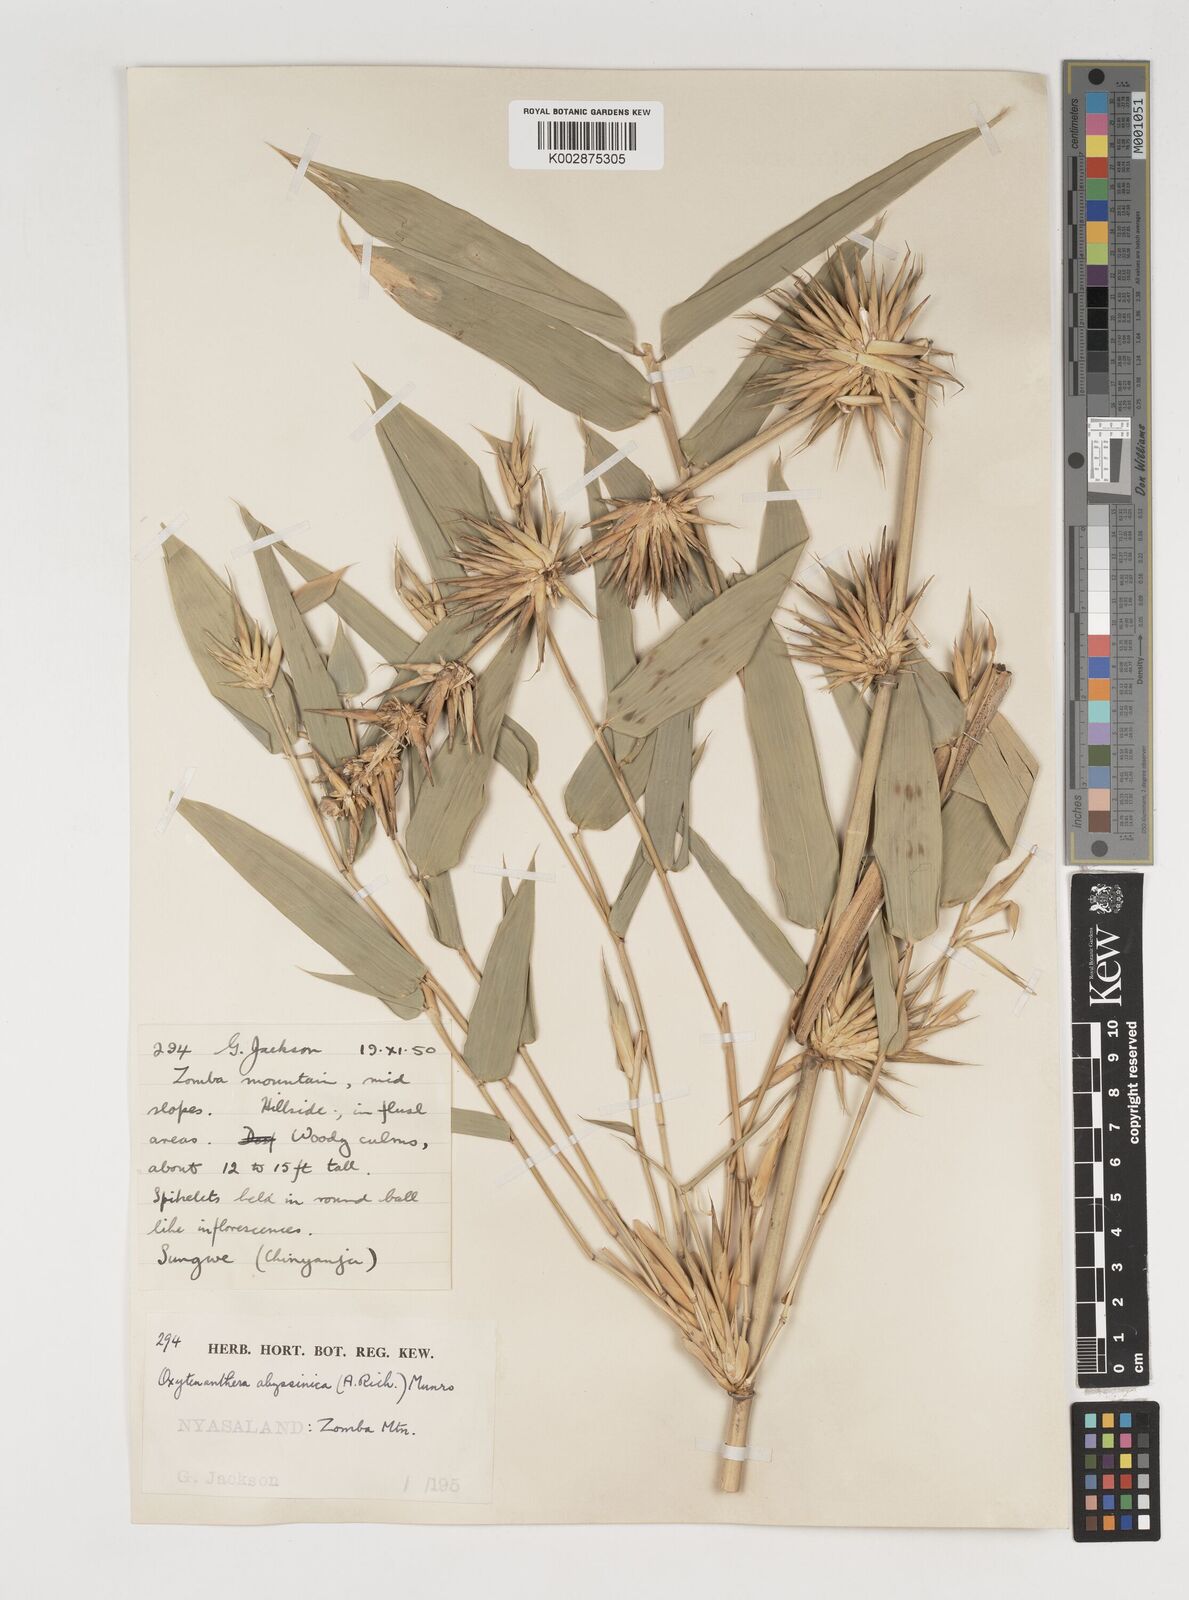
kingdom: Plantae
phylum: Tracheophyta
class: Liliopsida
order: Poales
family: Poaceae
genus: Oxytenanthera
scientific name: Oxytenanthera abyssinica
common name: Wine bamboo
